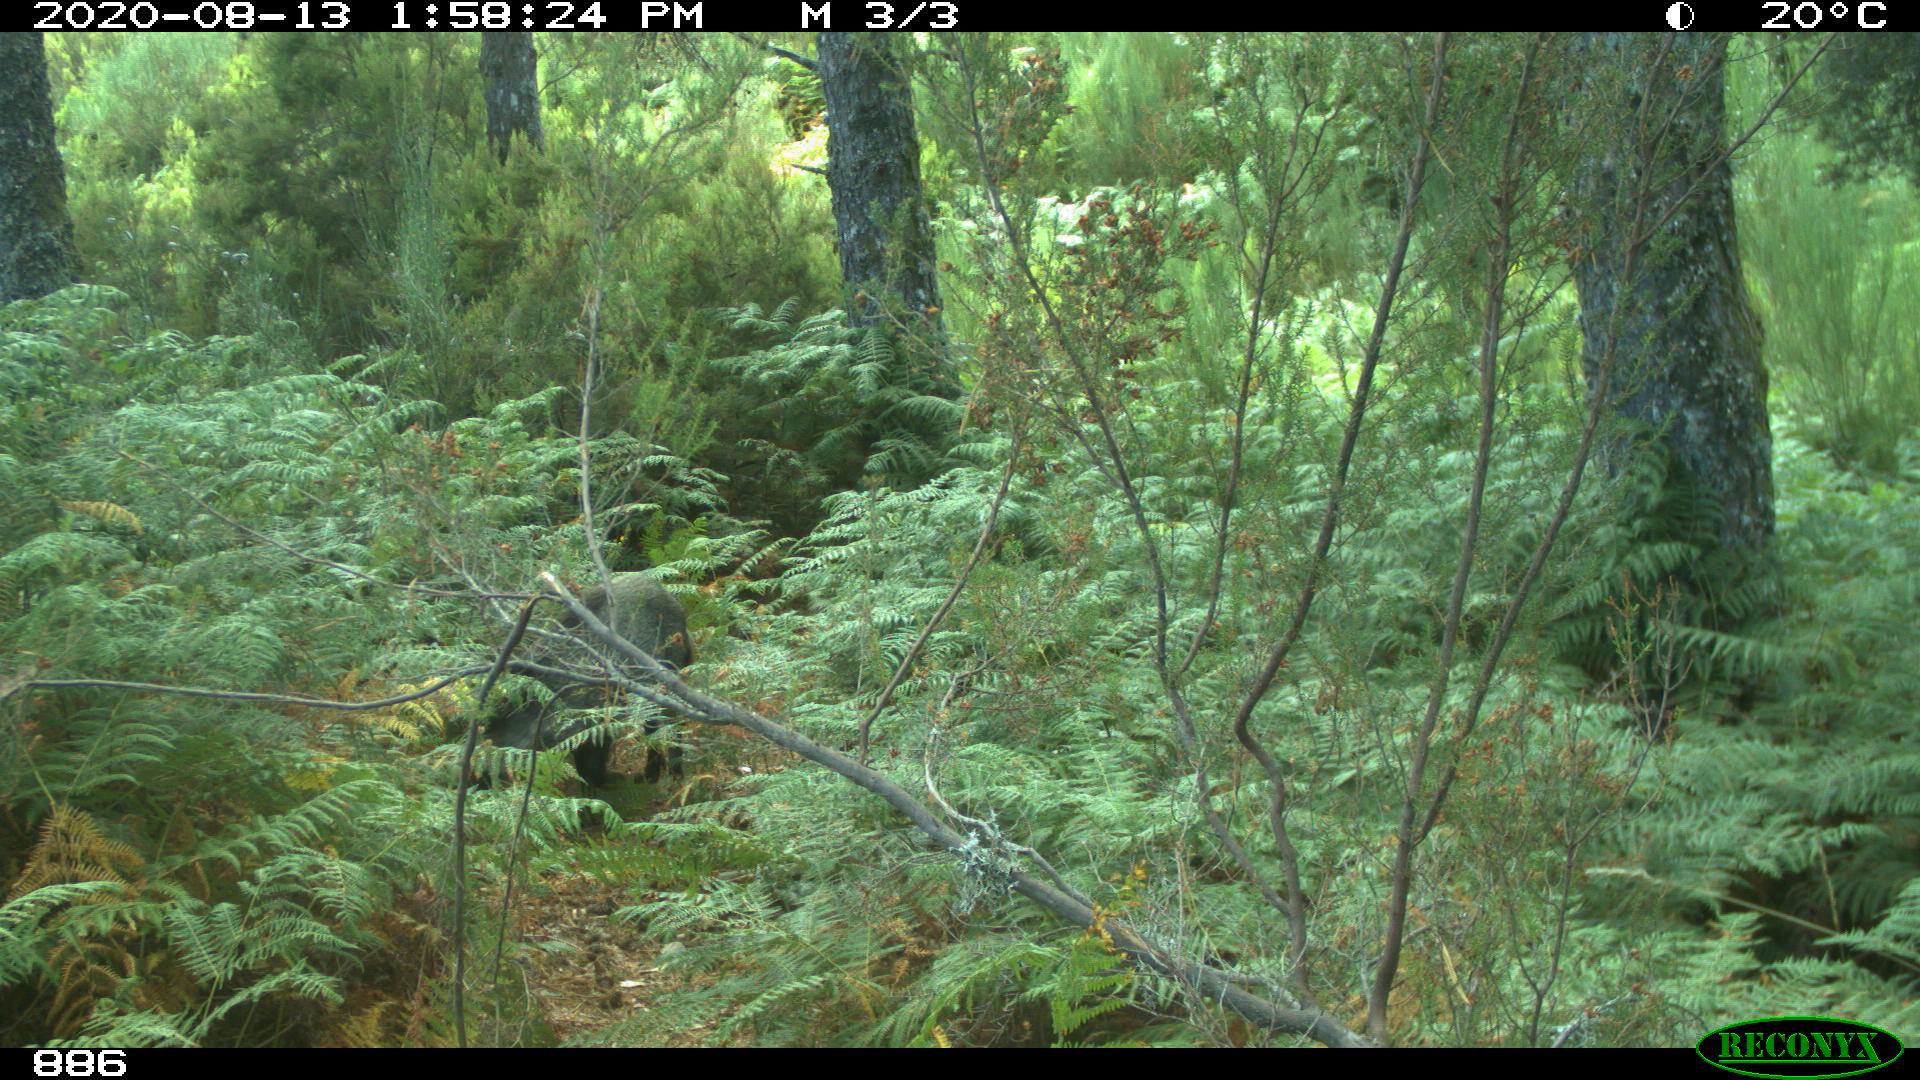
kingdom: Animalia
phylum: Chordata
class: Mammalia
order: Artiodactyla
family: Suidae
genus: Sus
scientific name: Sus scrofa
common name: Wild boar
